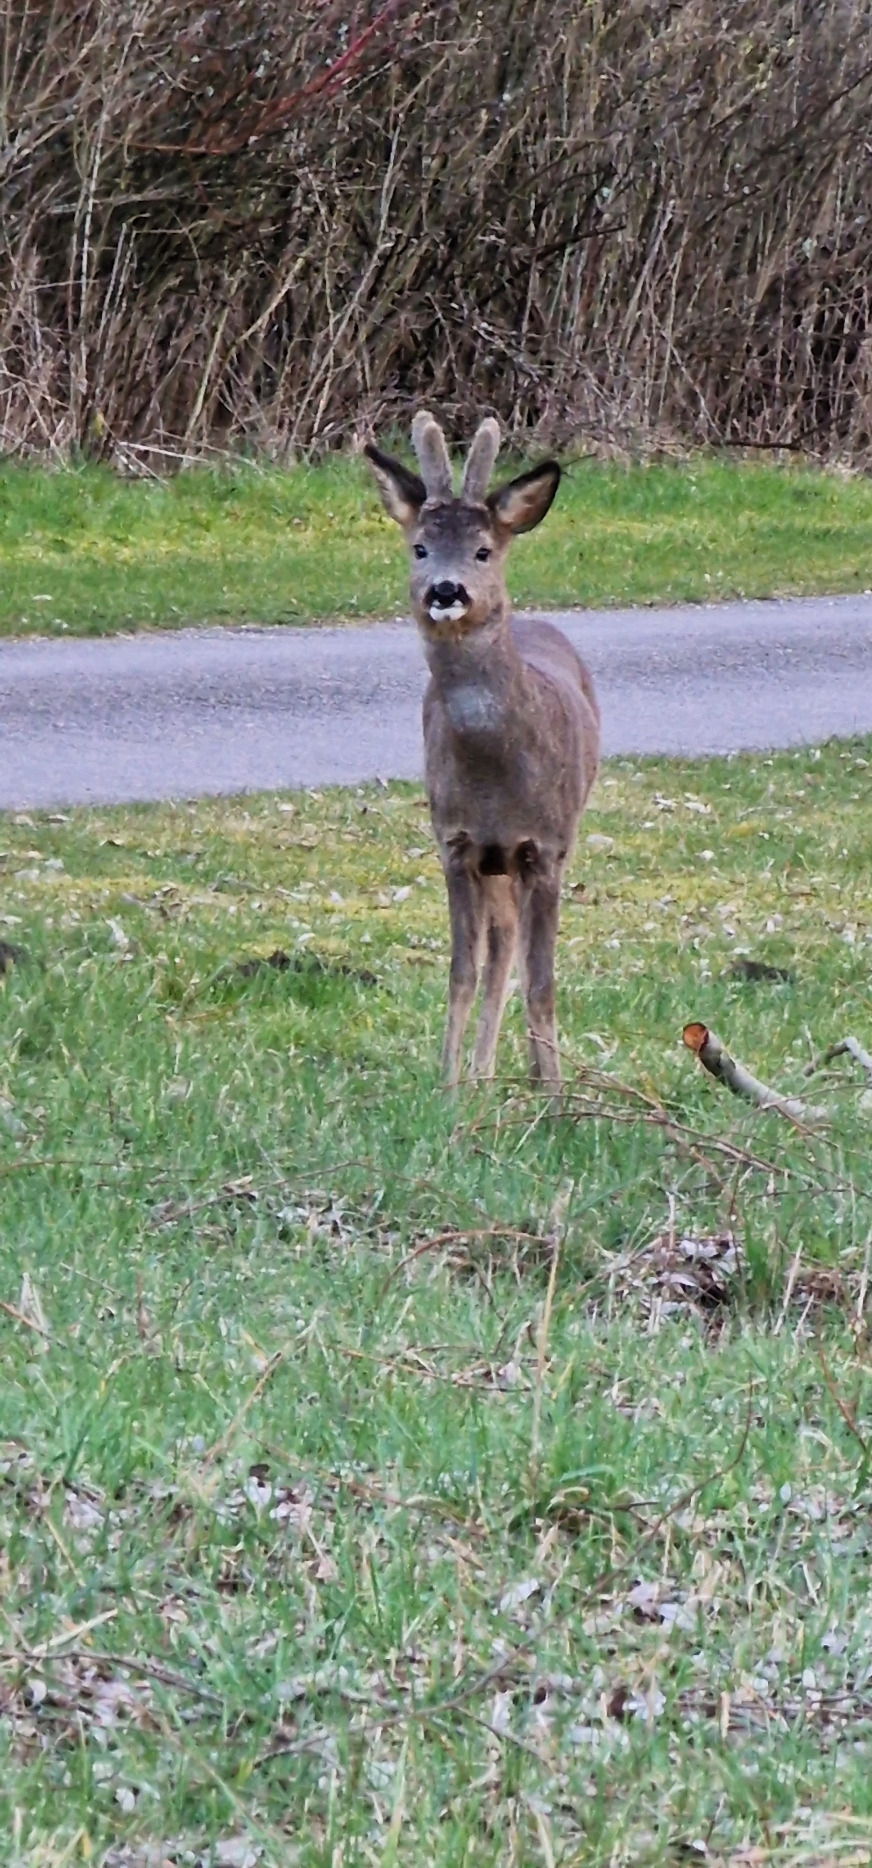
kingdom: Animalia
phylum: Chordata
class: Mammalia
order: Artiodactyla
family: Cervidae
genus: Capreolus
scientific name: Capreolus capreolus
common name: Rådyr
